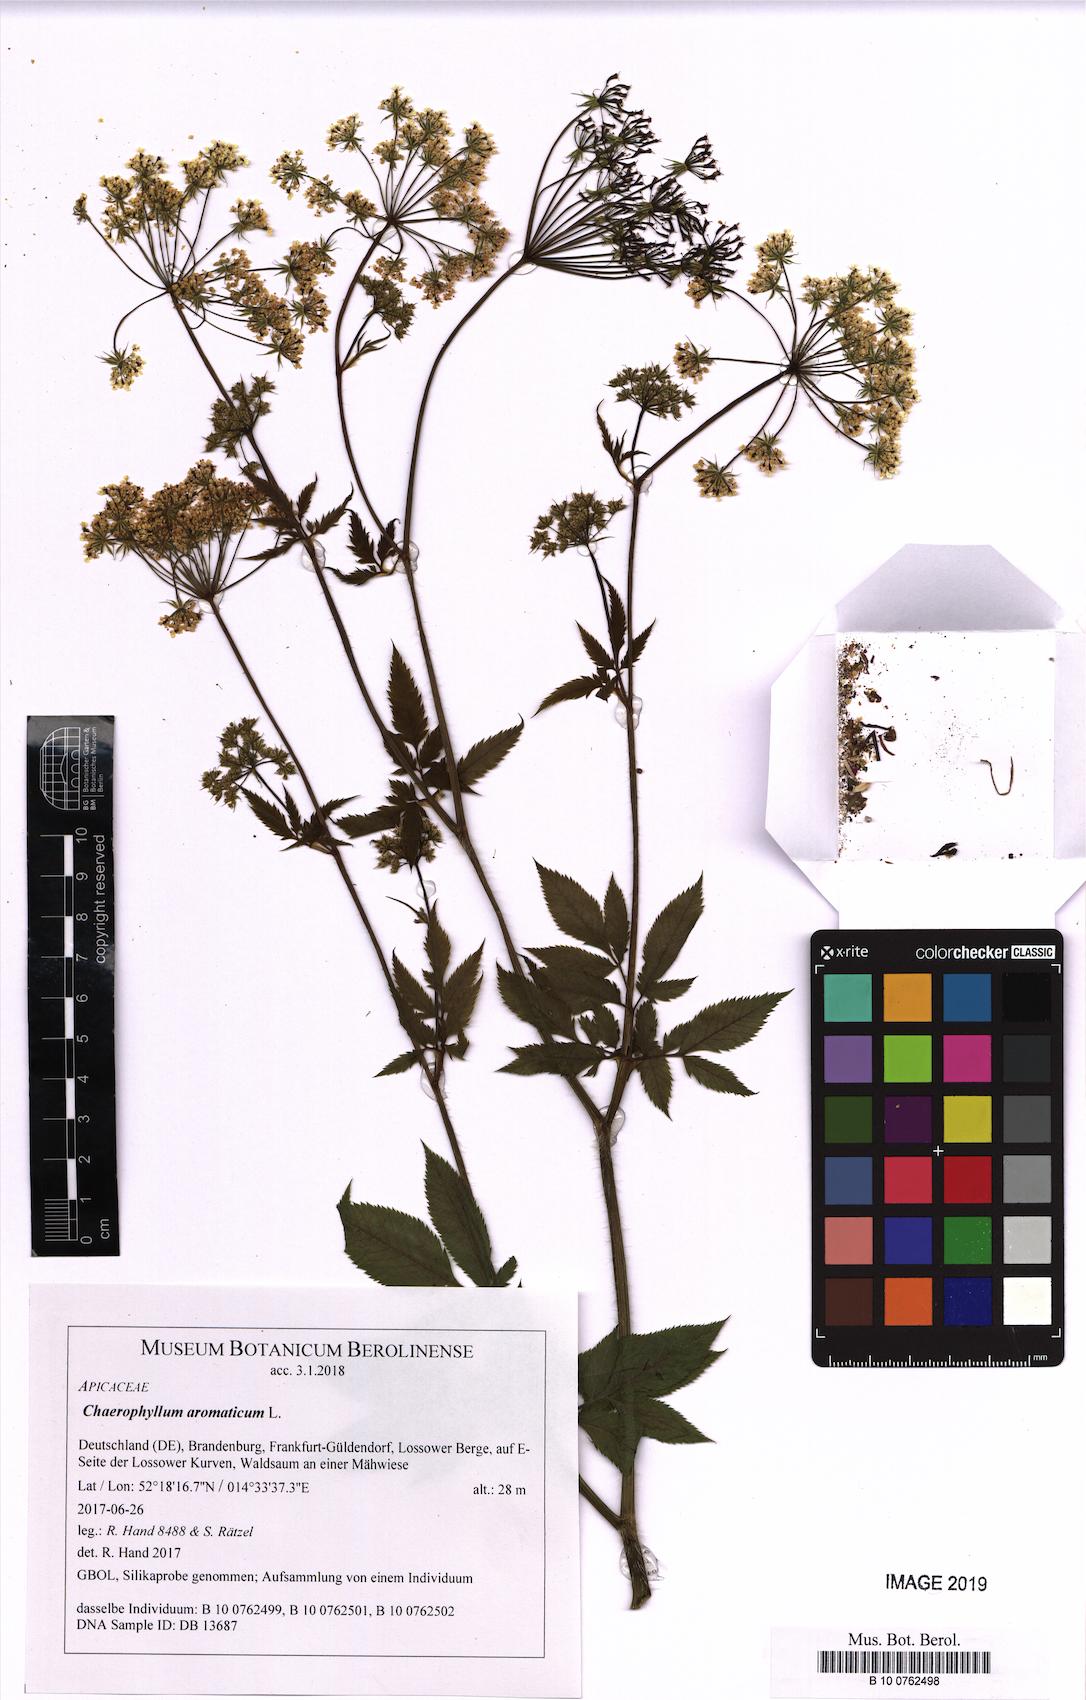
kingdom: Plantae
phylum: Tracheophyta
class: Magnoliopsida
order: Apiales
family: Apiaceae
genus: Chaerophyllum
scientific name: Chaerophyllum aromaticum
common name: Broadleaf chervil
